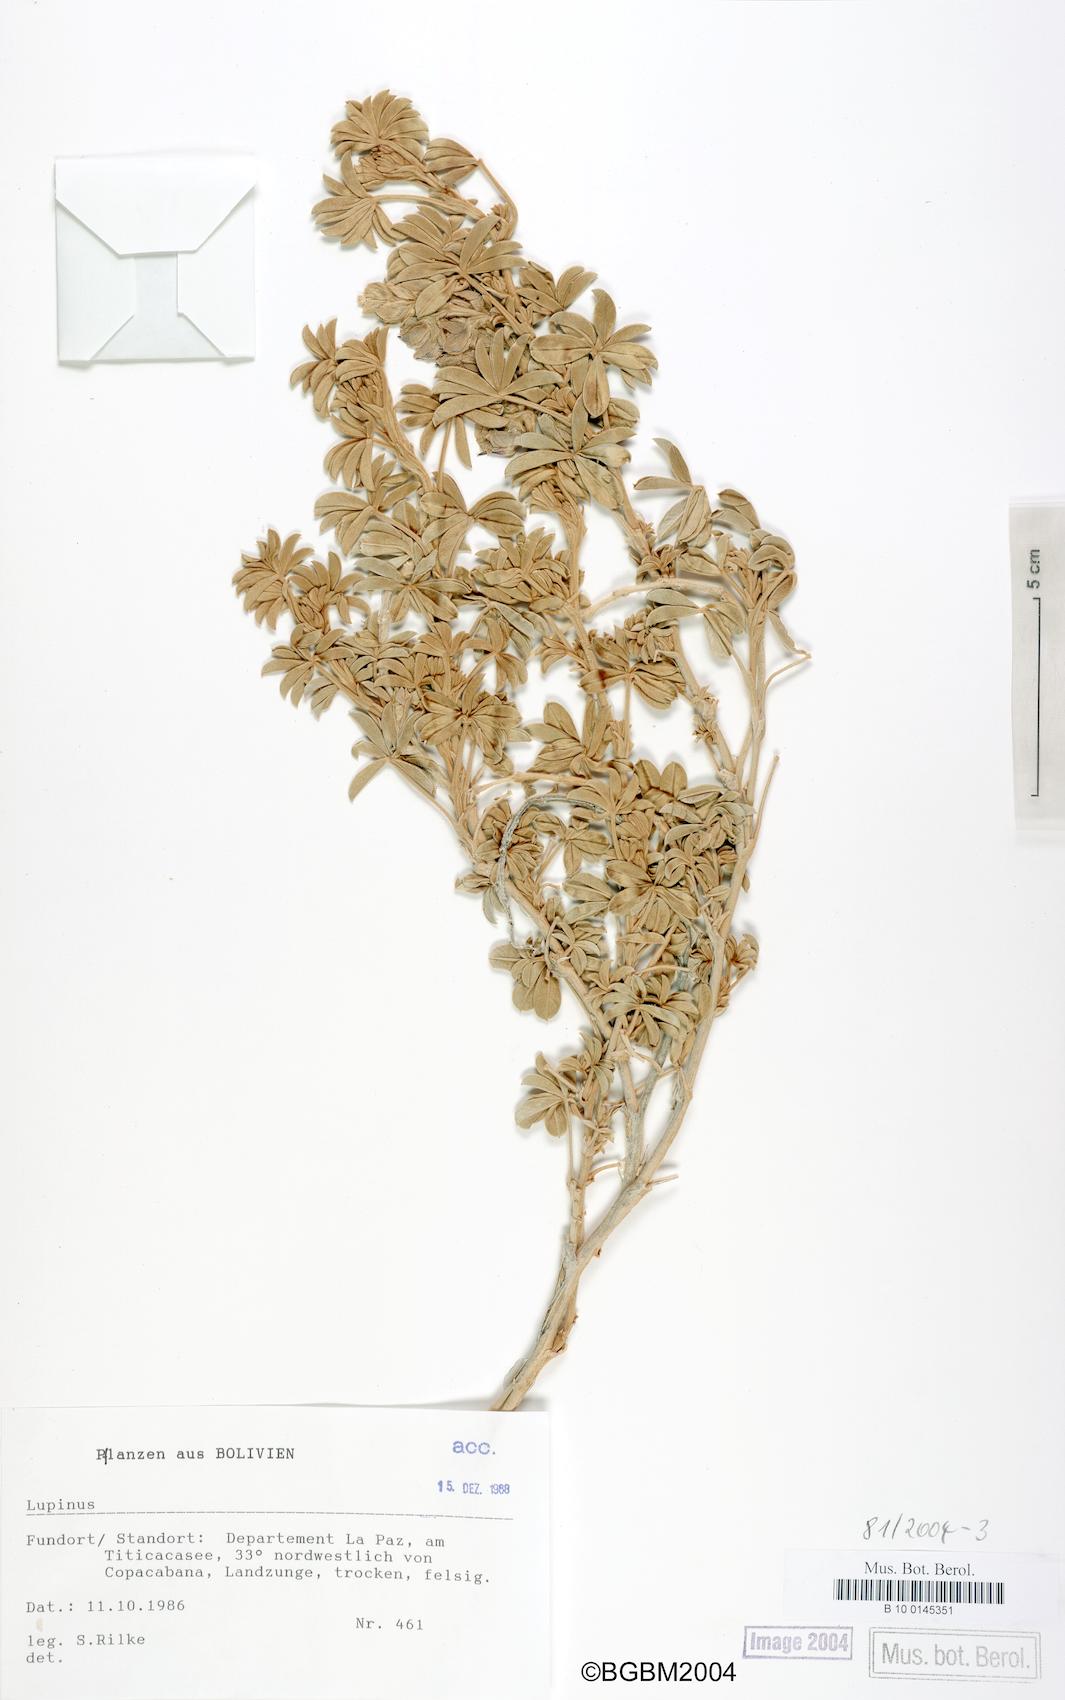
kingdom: Plantae
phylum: Tracheophyta
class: Magnoliopsida
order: Fabales
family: Fabaceae
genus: Lupinus
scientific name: Lupinus
